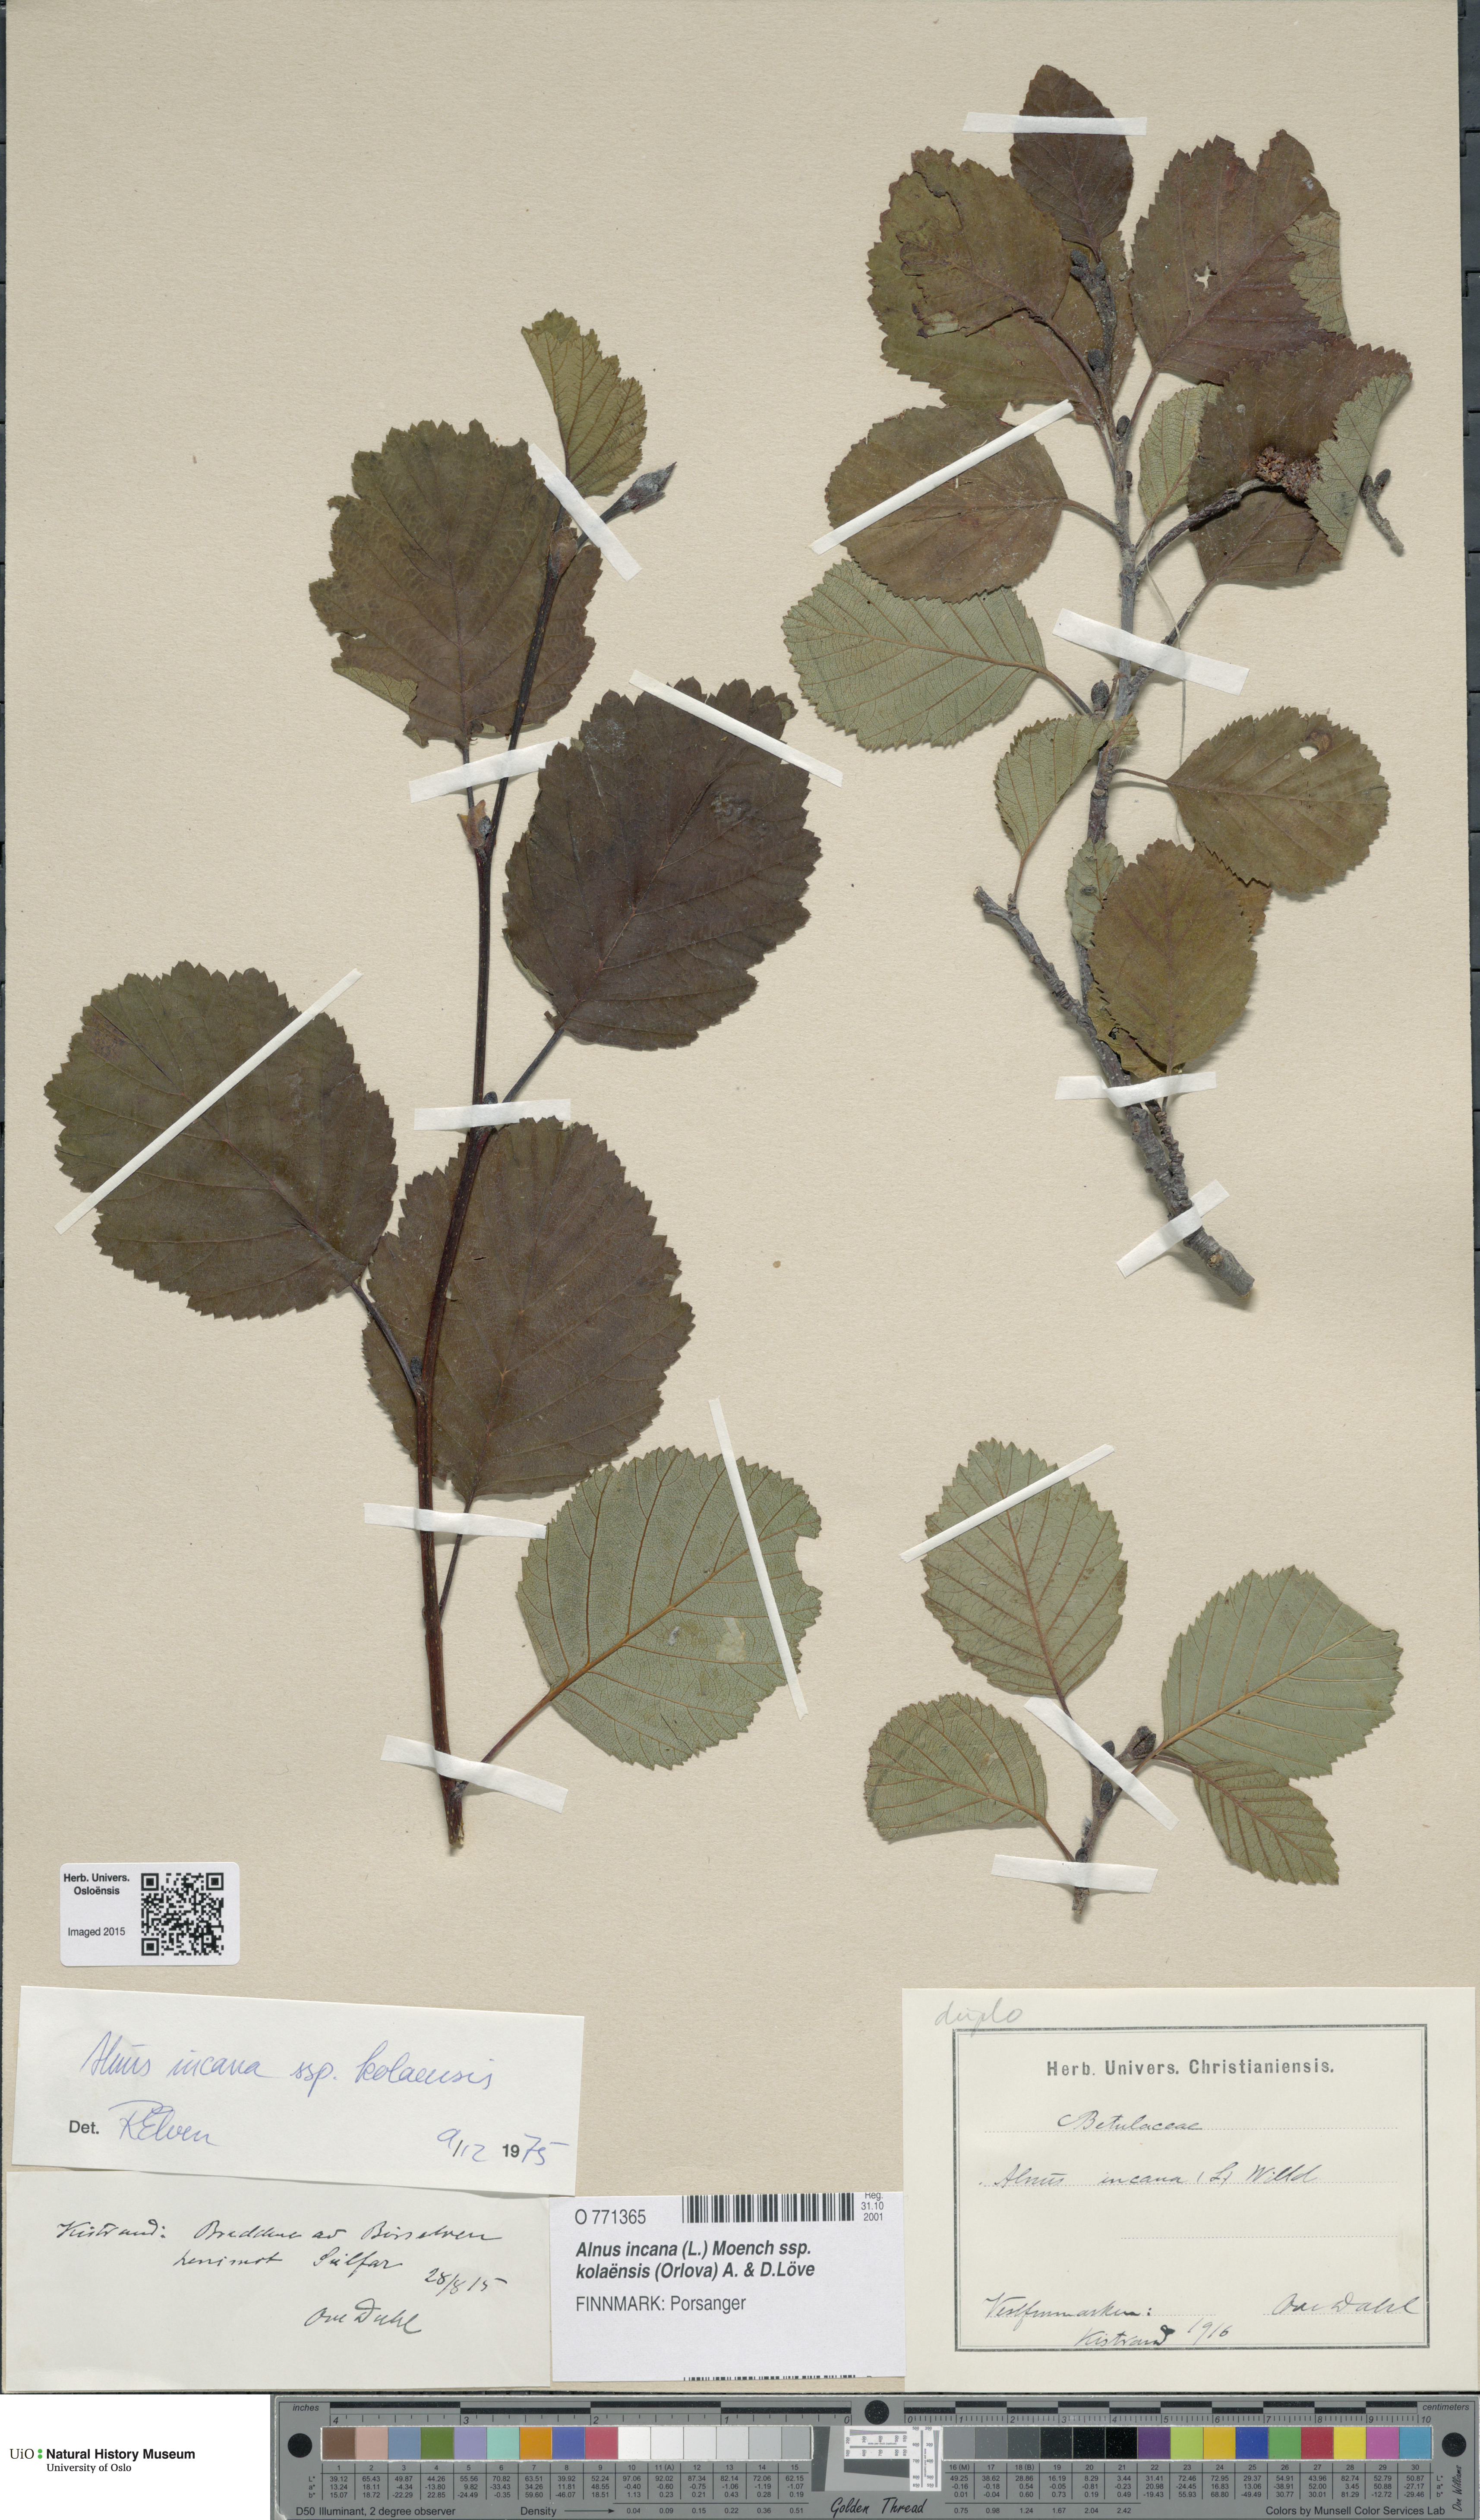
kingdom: Plantae
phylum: Tracheophyta
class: Magnoliopsida
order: Fagales
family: Betulaceae
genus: Alnus
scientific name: Alnus incana
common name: Grey alder
